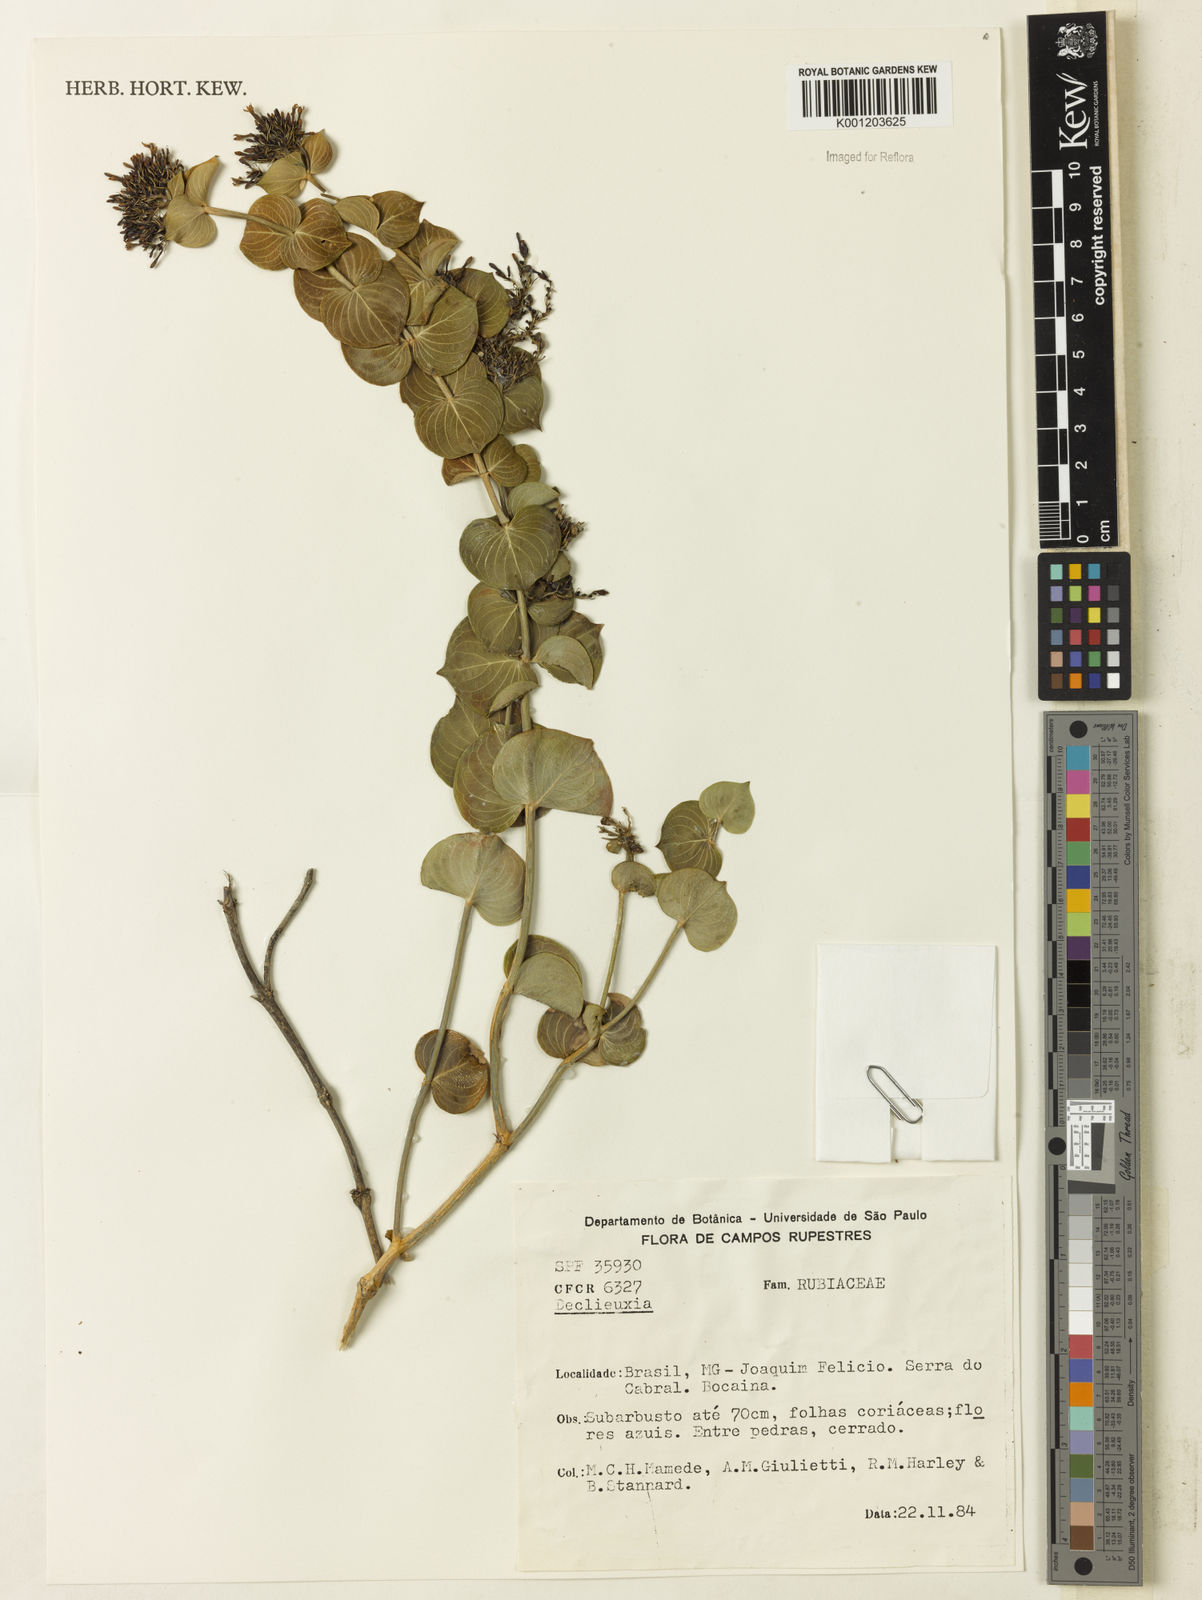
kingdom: Plantae
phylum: Tracheophyta
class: Magnoliopsida
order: Gentianales
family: Rubiaceae
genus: Declieuxia
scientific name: Declieuxia
